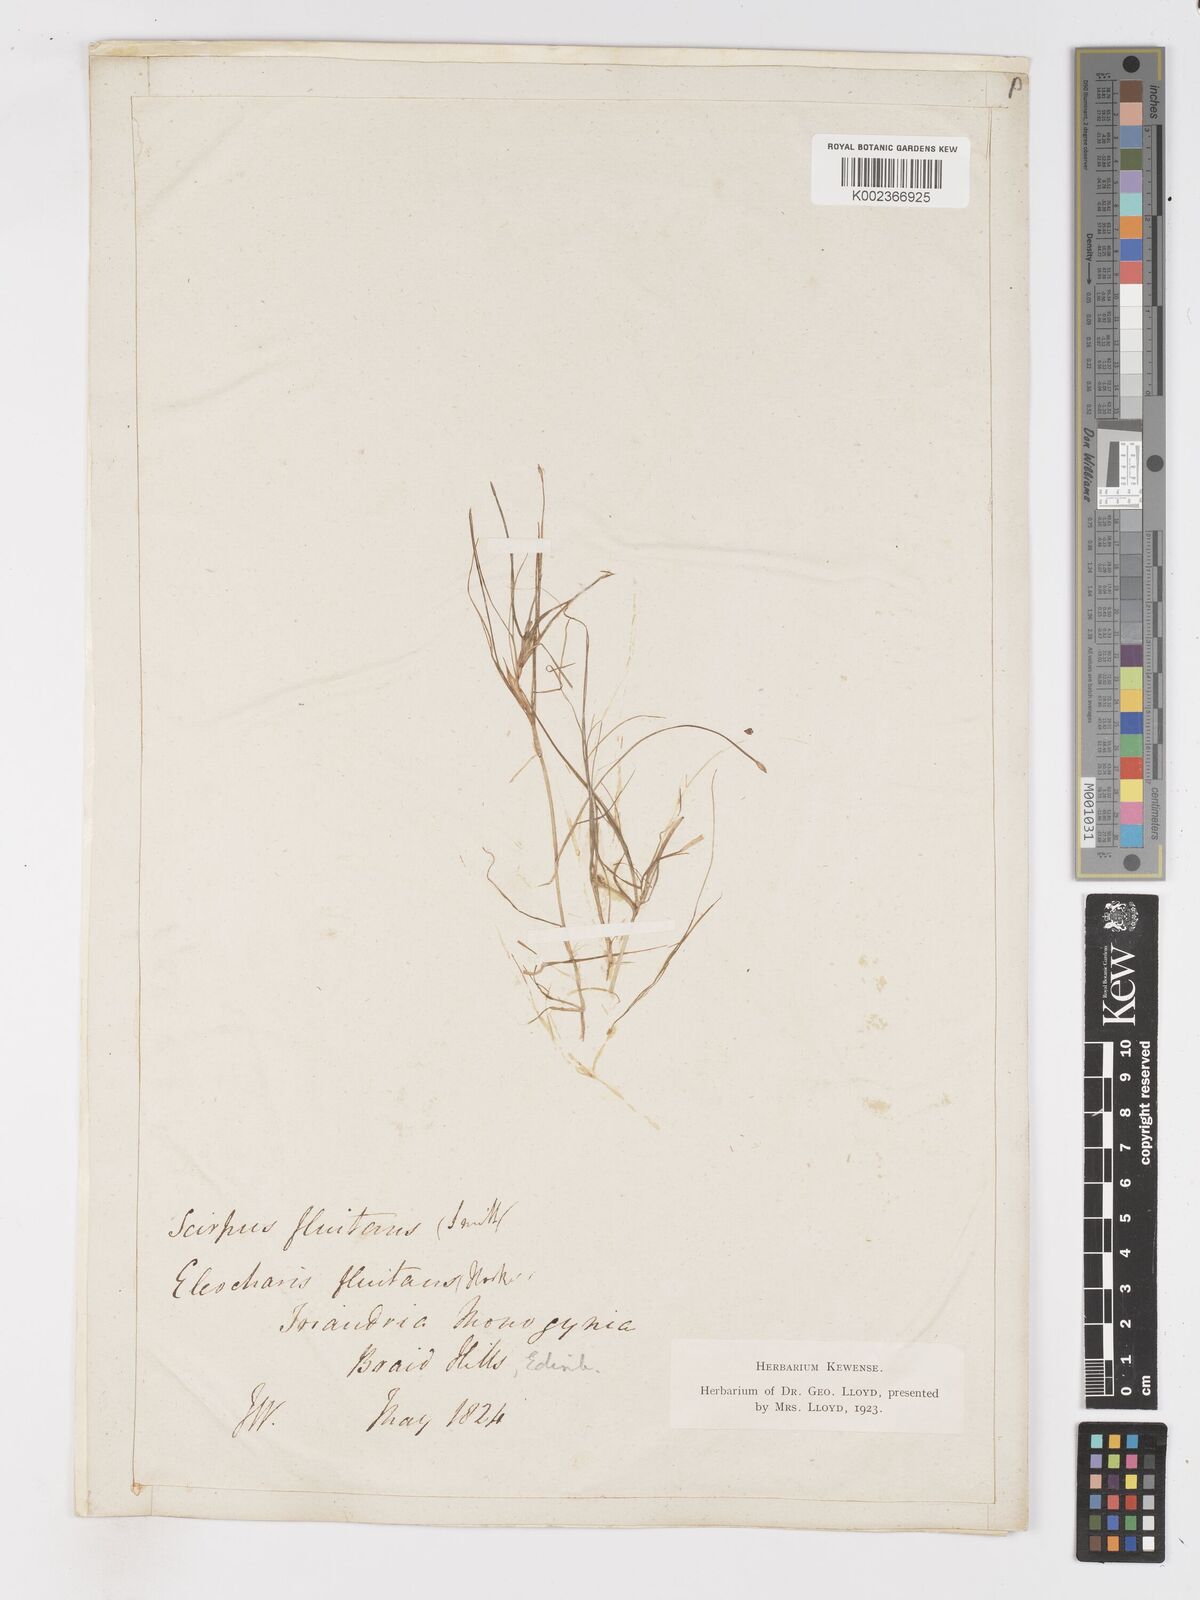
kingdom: Plantae
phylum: Tracheophyta
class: Liliopsida
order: Poales
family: Cyperaceae
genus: Isolepis
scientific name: Isolepis fluitans
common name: Floating club-rush
